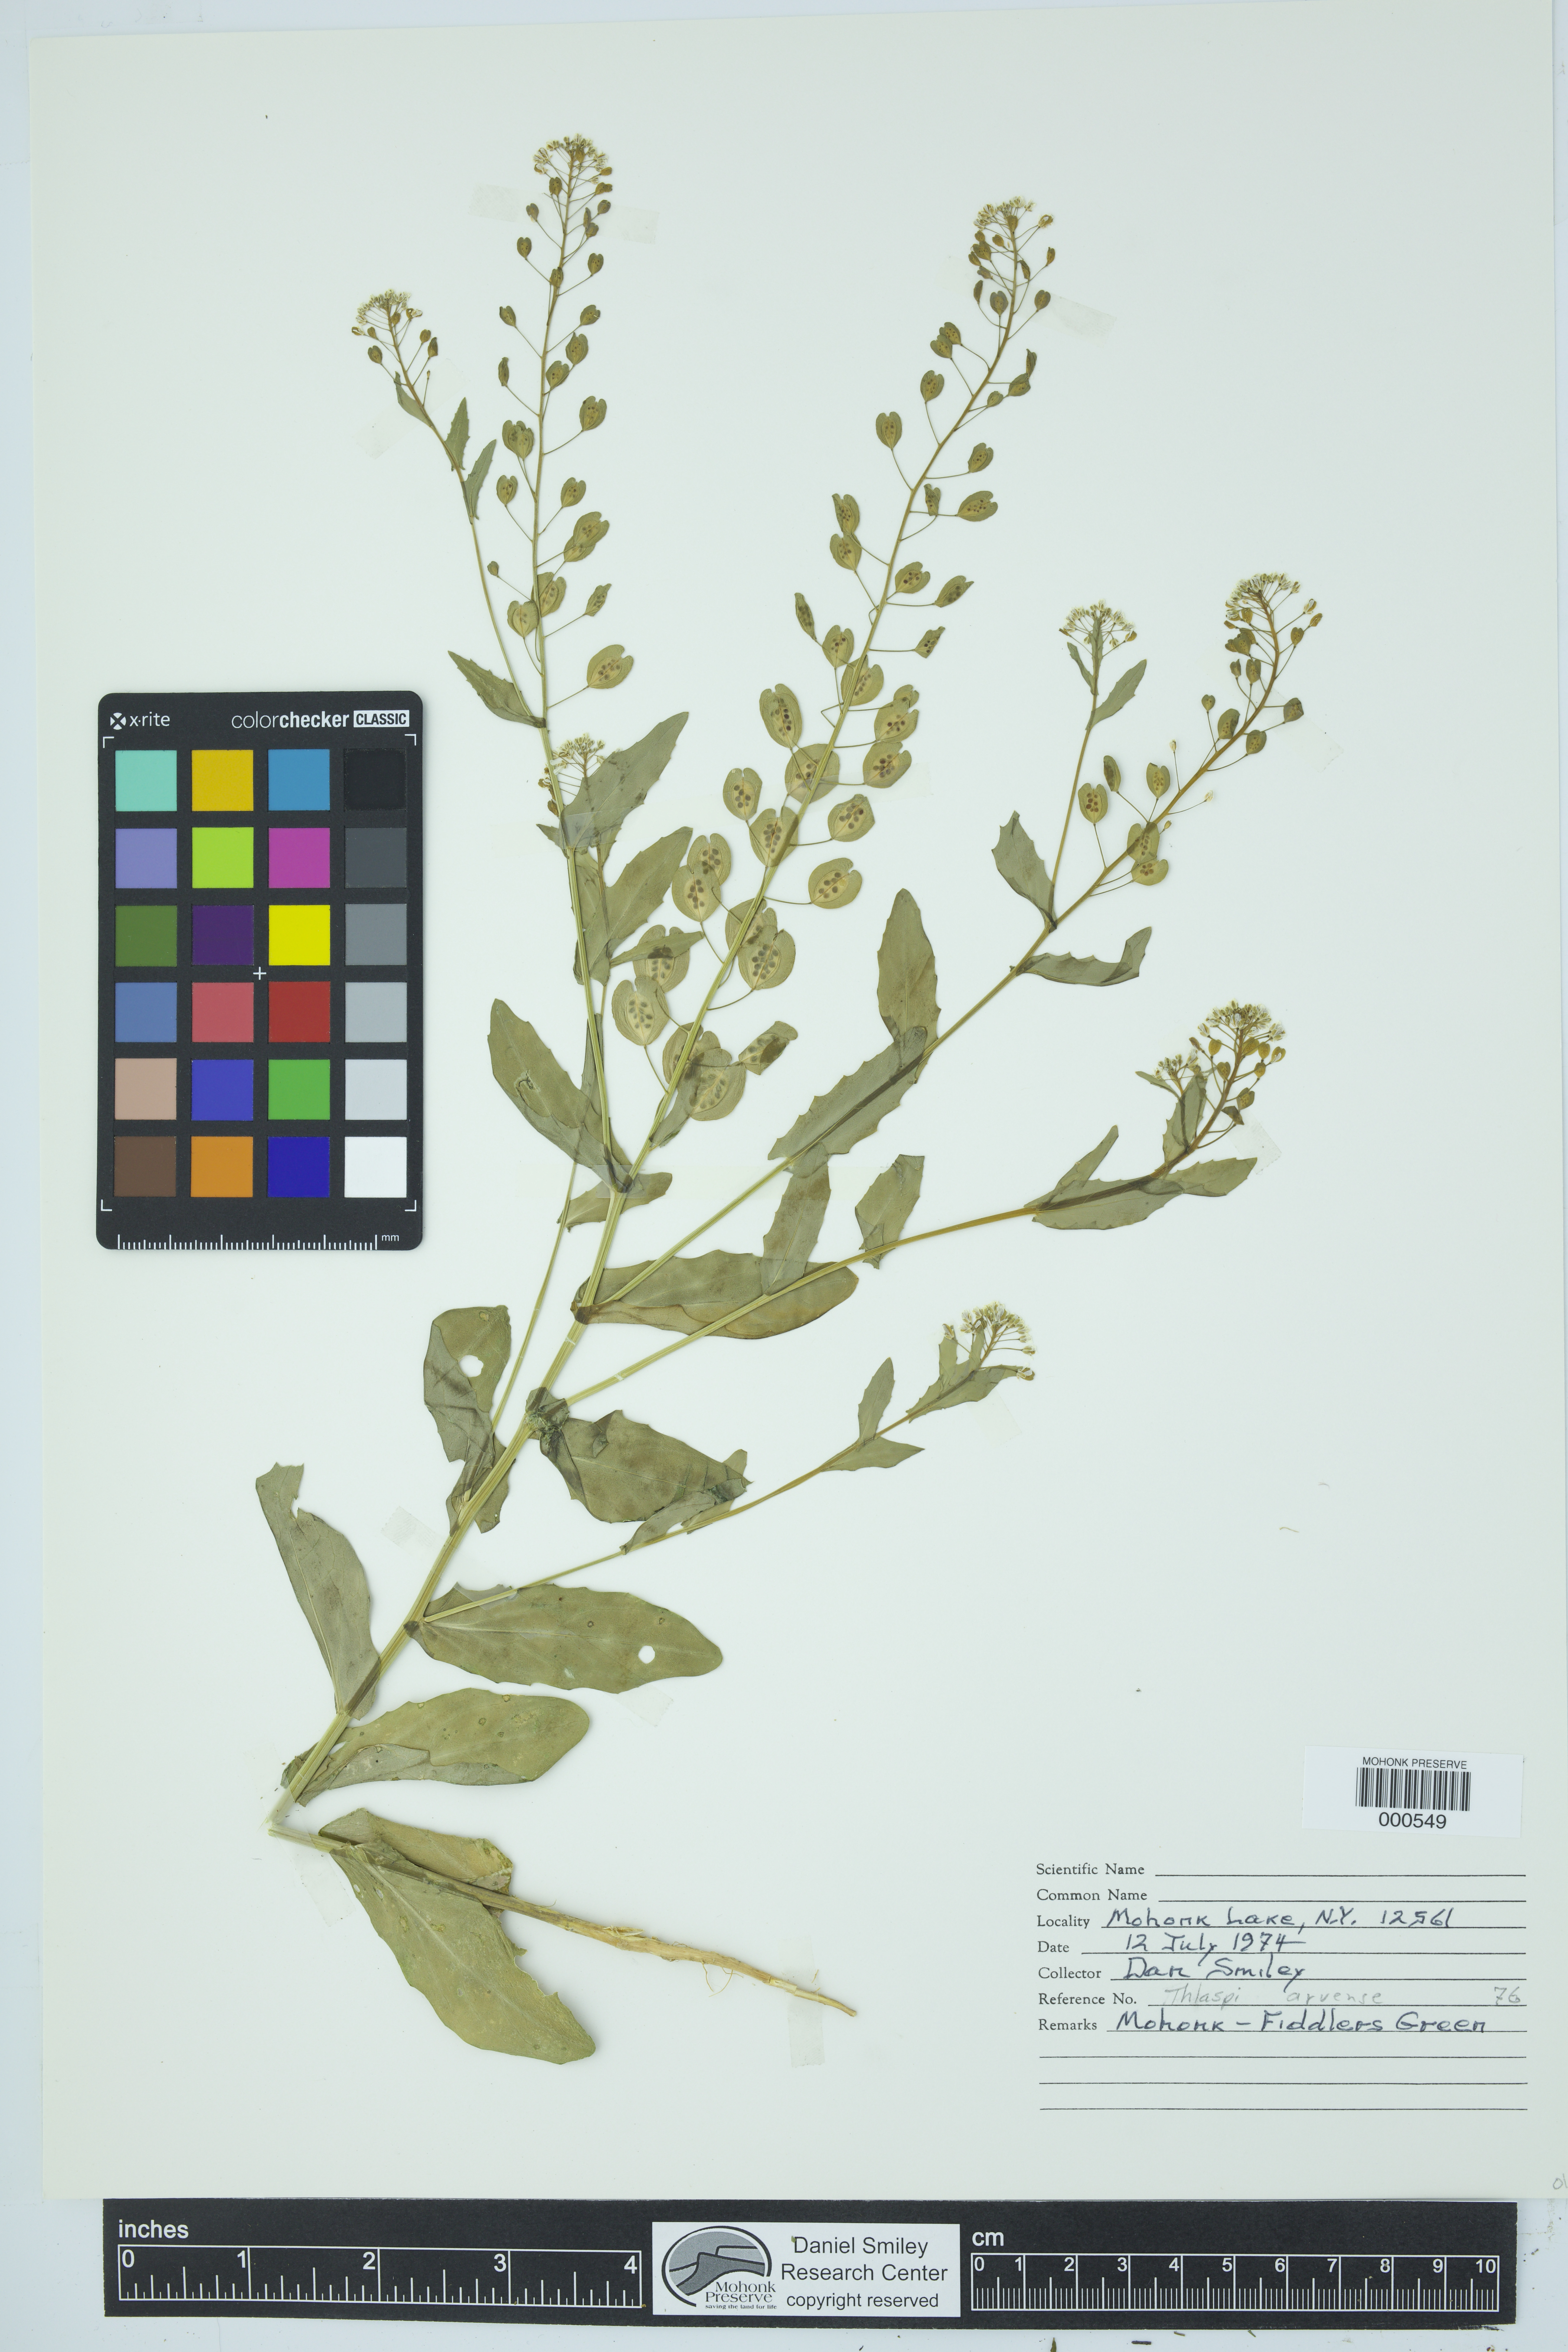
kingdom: Plantae
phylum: Tracheophyta
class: Magnoliopsida
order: Brassicales
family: Brassicaceae
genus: Thlaspi
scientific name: Thlaspi arvense
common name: Field pennycress
